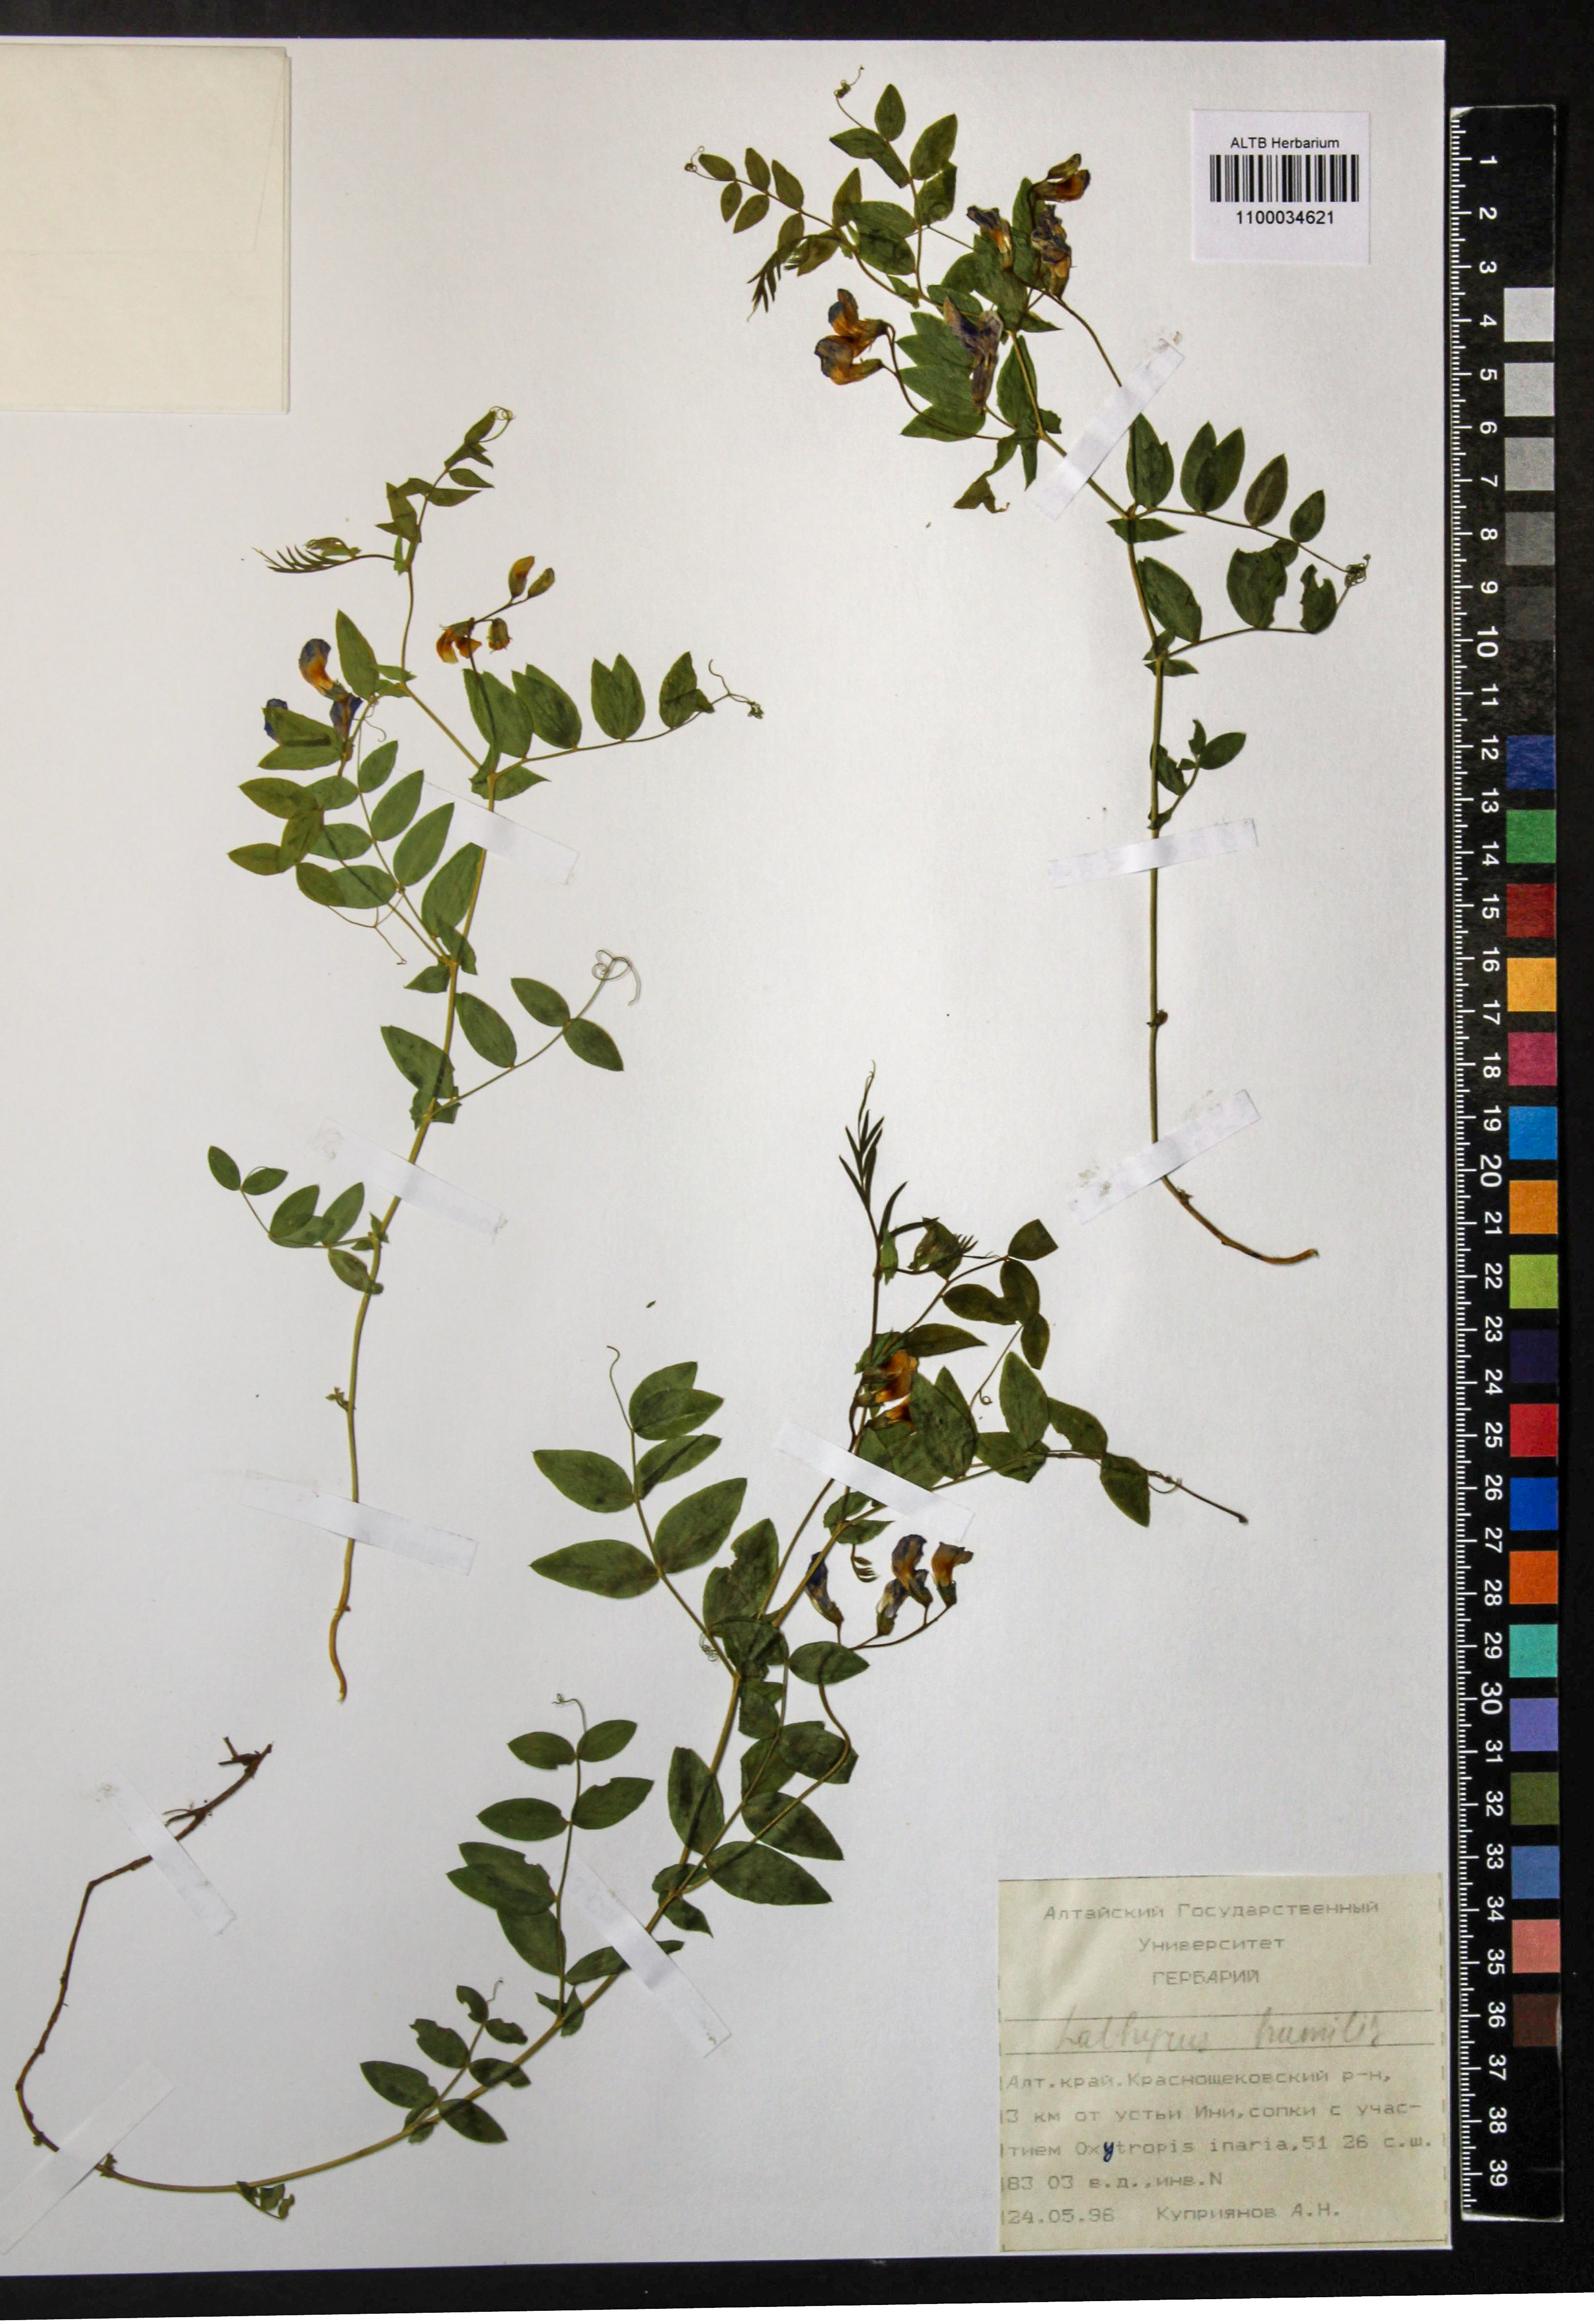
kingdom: Plantae
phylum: Tracheophyta
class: Magnoliopsida
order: Fabales
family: Fabaceae
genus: Lathyrus
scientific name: Lathyrus humilis
